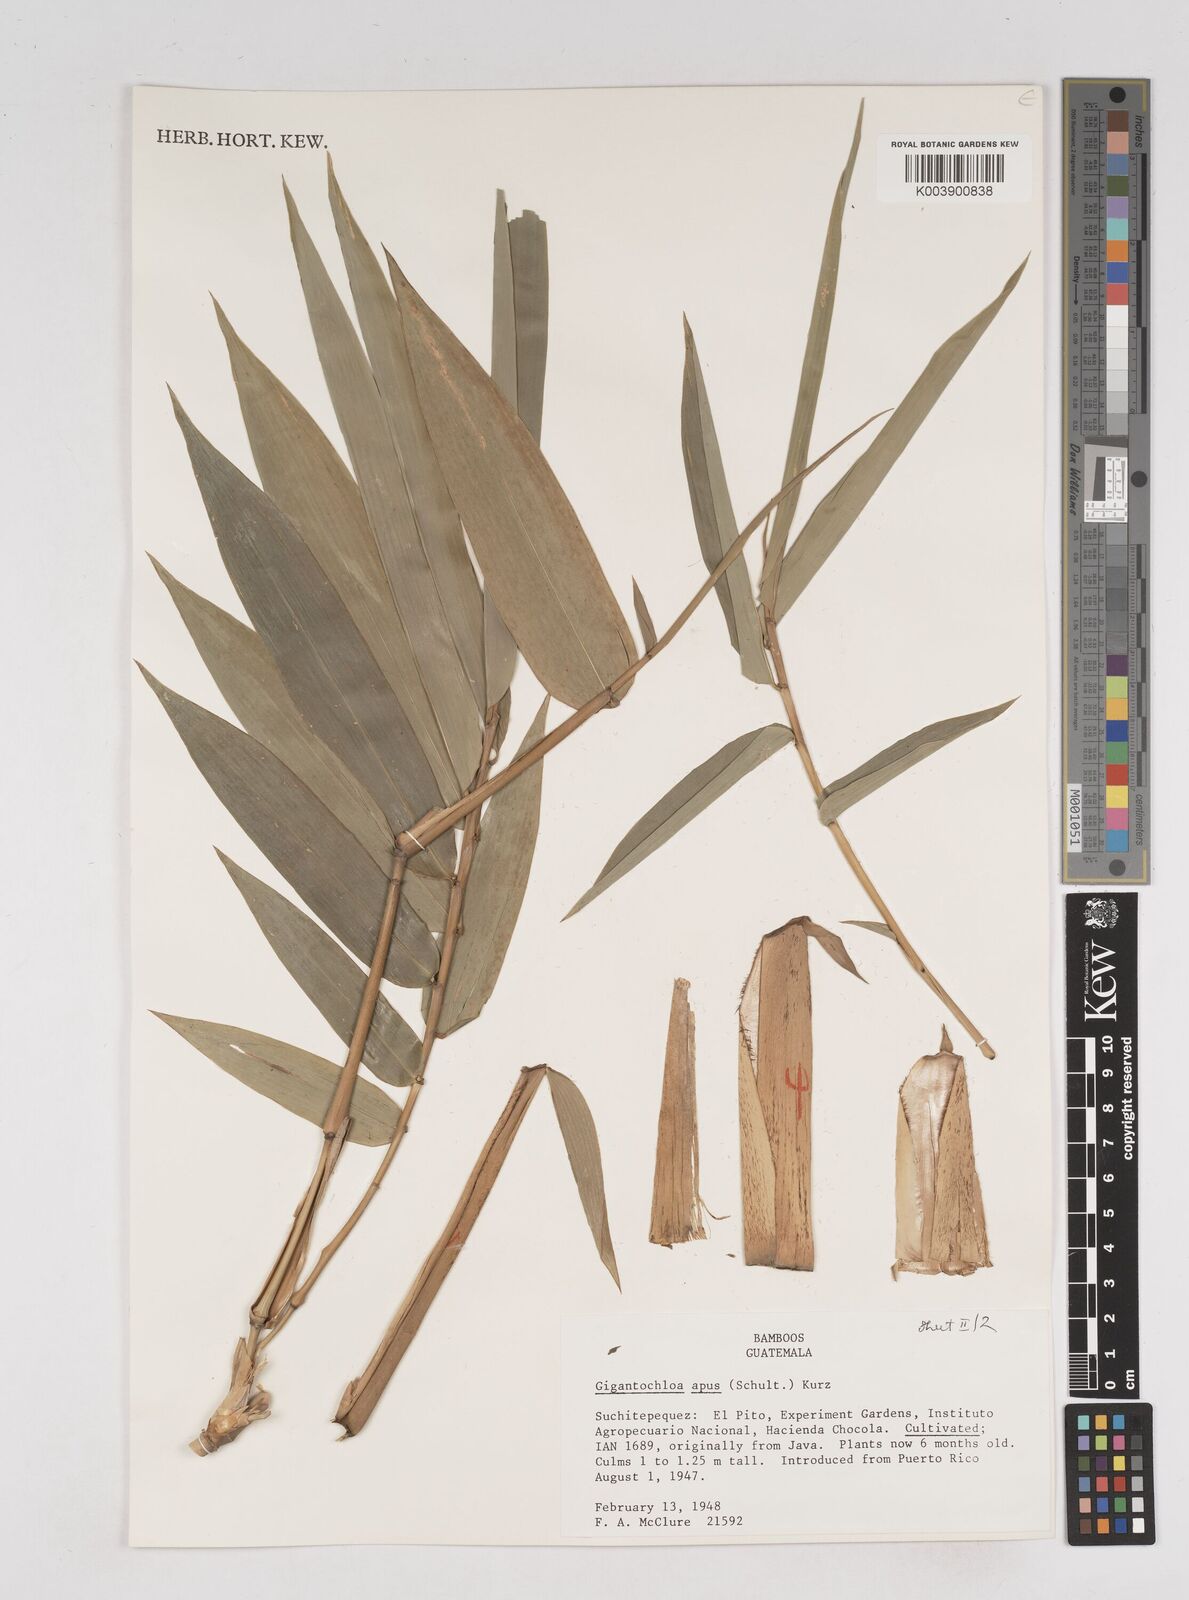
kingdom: Plantae
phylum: Tracheophyta
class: Liliopsida
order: Poales
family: Poaceae
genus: Gigantochloa
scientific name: Gigantochloa apus
